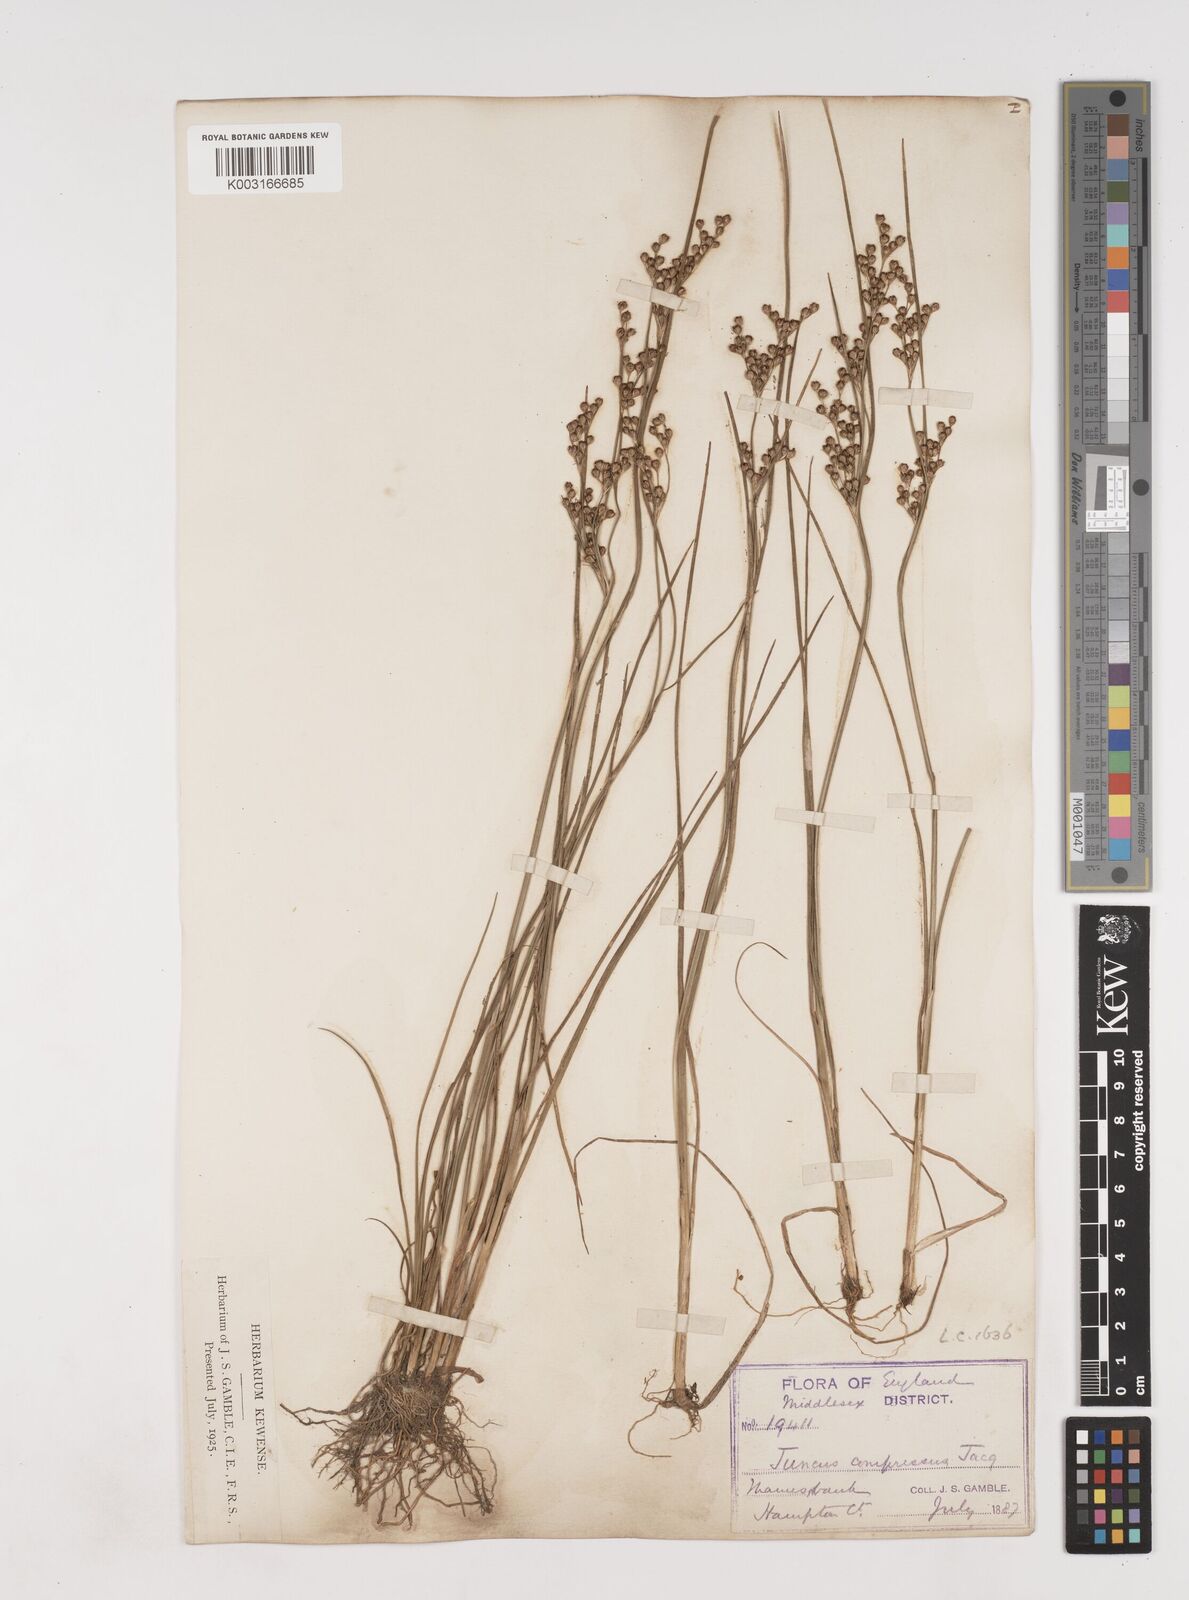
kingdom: Plantae
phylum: Tracheophyta
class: Liliopsida
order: Poales
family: Juncaceae
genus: Juncus
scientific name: Juncus compressus
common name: Round-fruited rush
